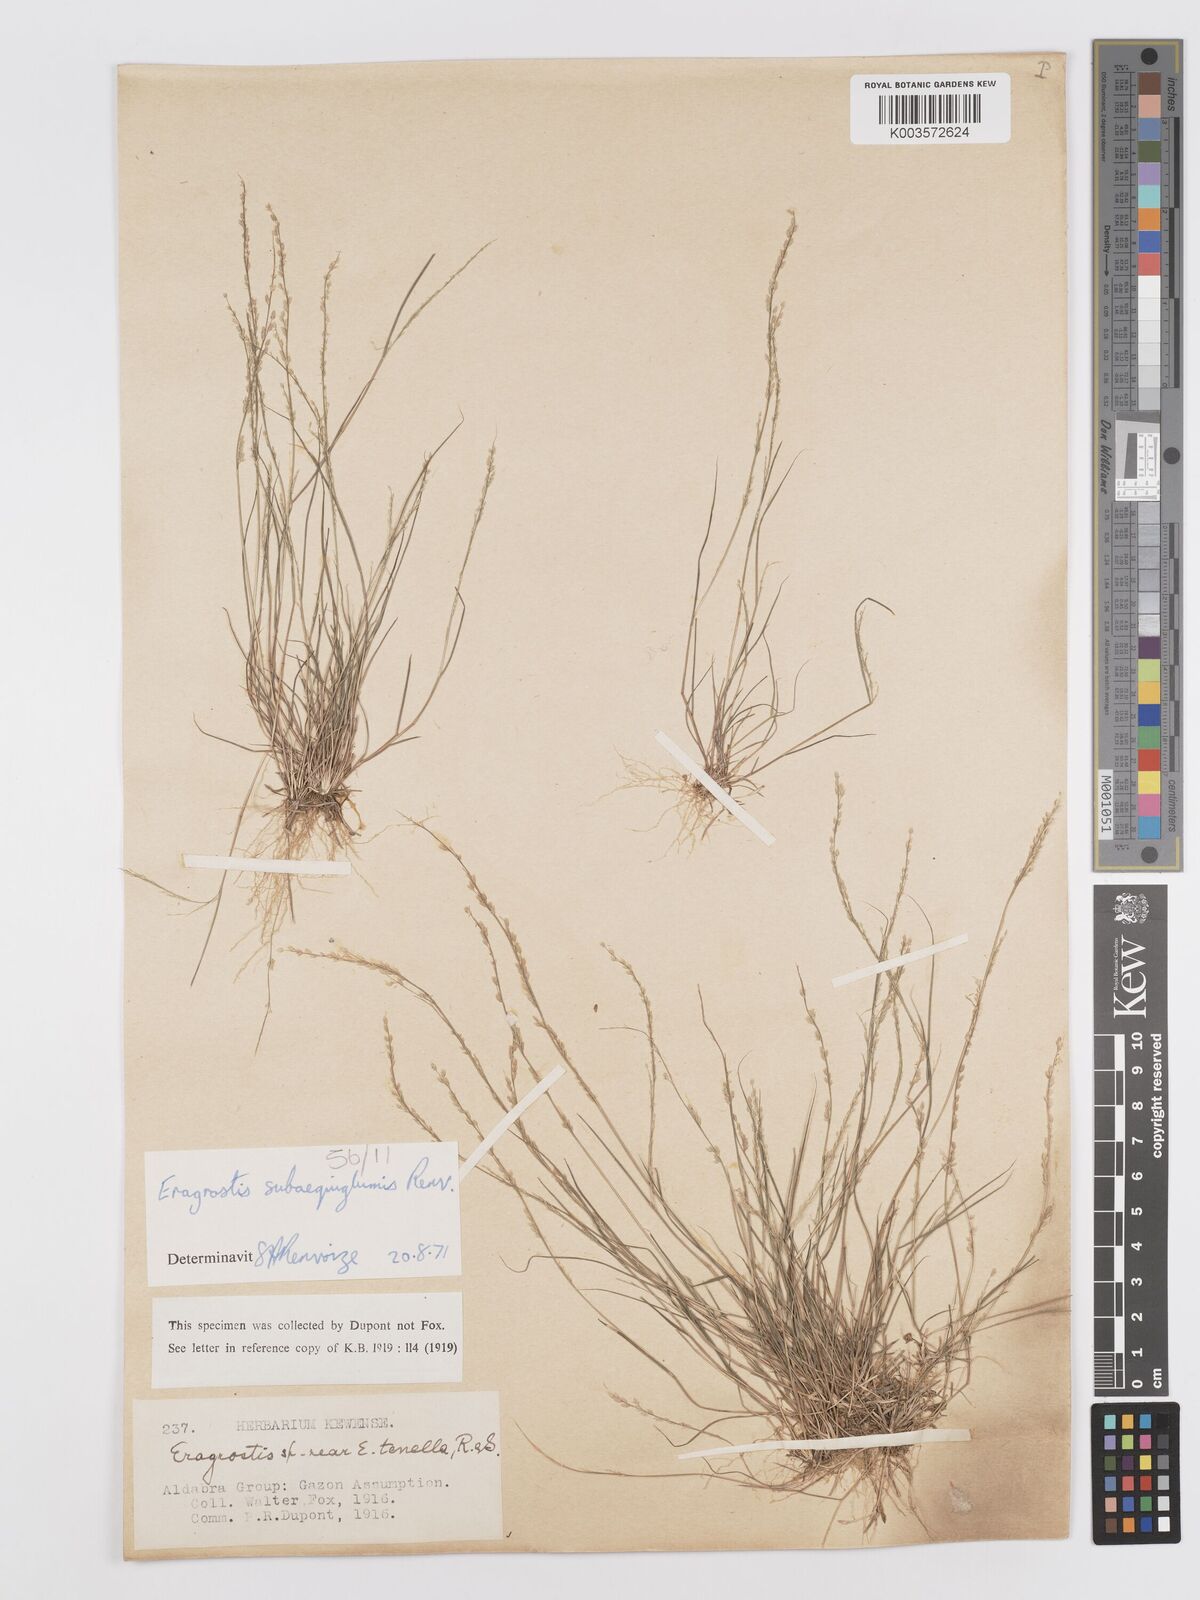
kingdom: Plantae
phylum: Tracheophyta
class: Liliopsida
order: Poales
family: Poaceae
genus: Eragrostis
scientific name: Eragrostis subaequiglumis
